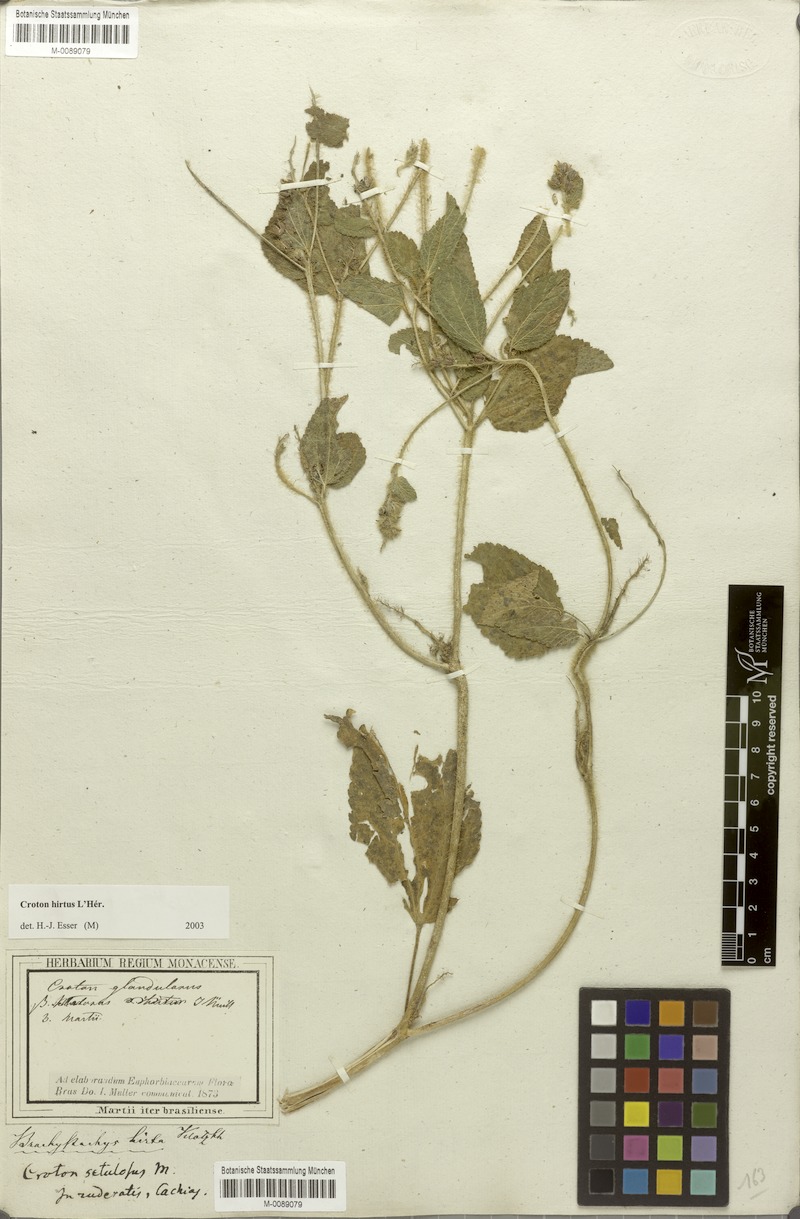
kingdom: Plantae
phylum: Tracheophyta
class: Magnoliopsida
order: Malpighiales
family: Euphorbiaceae
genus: Croton
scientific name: Croton hirtus
